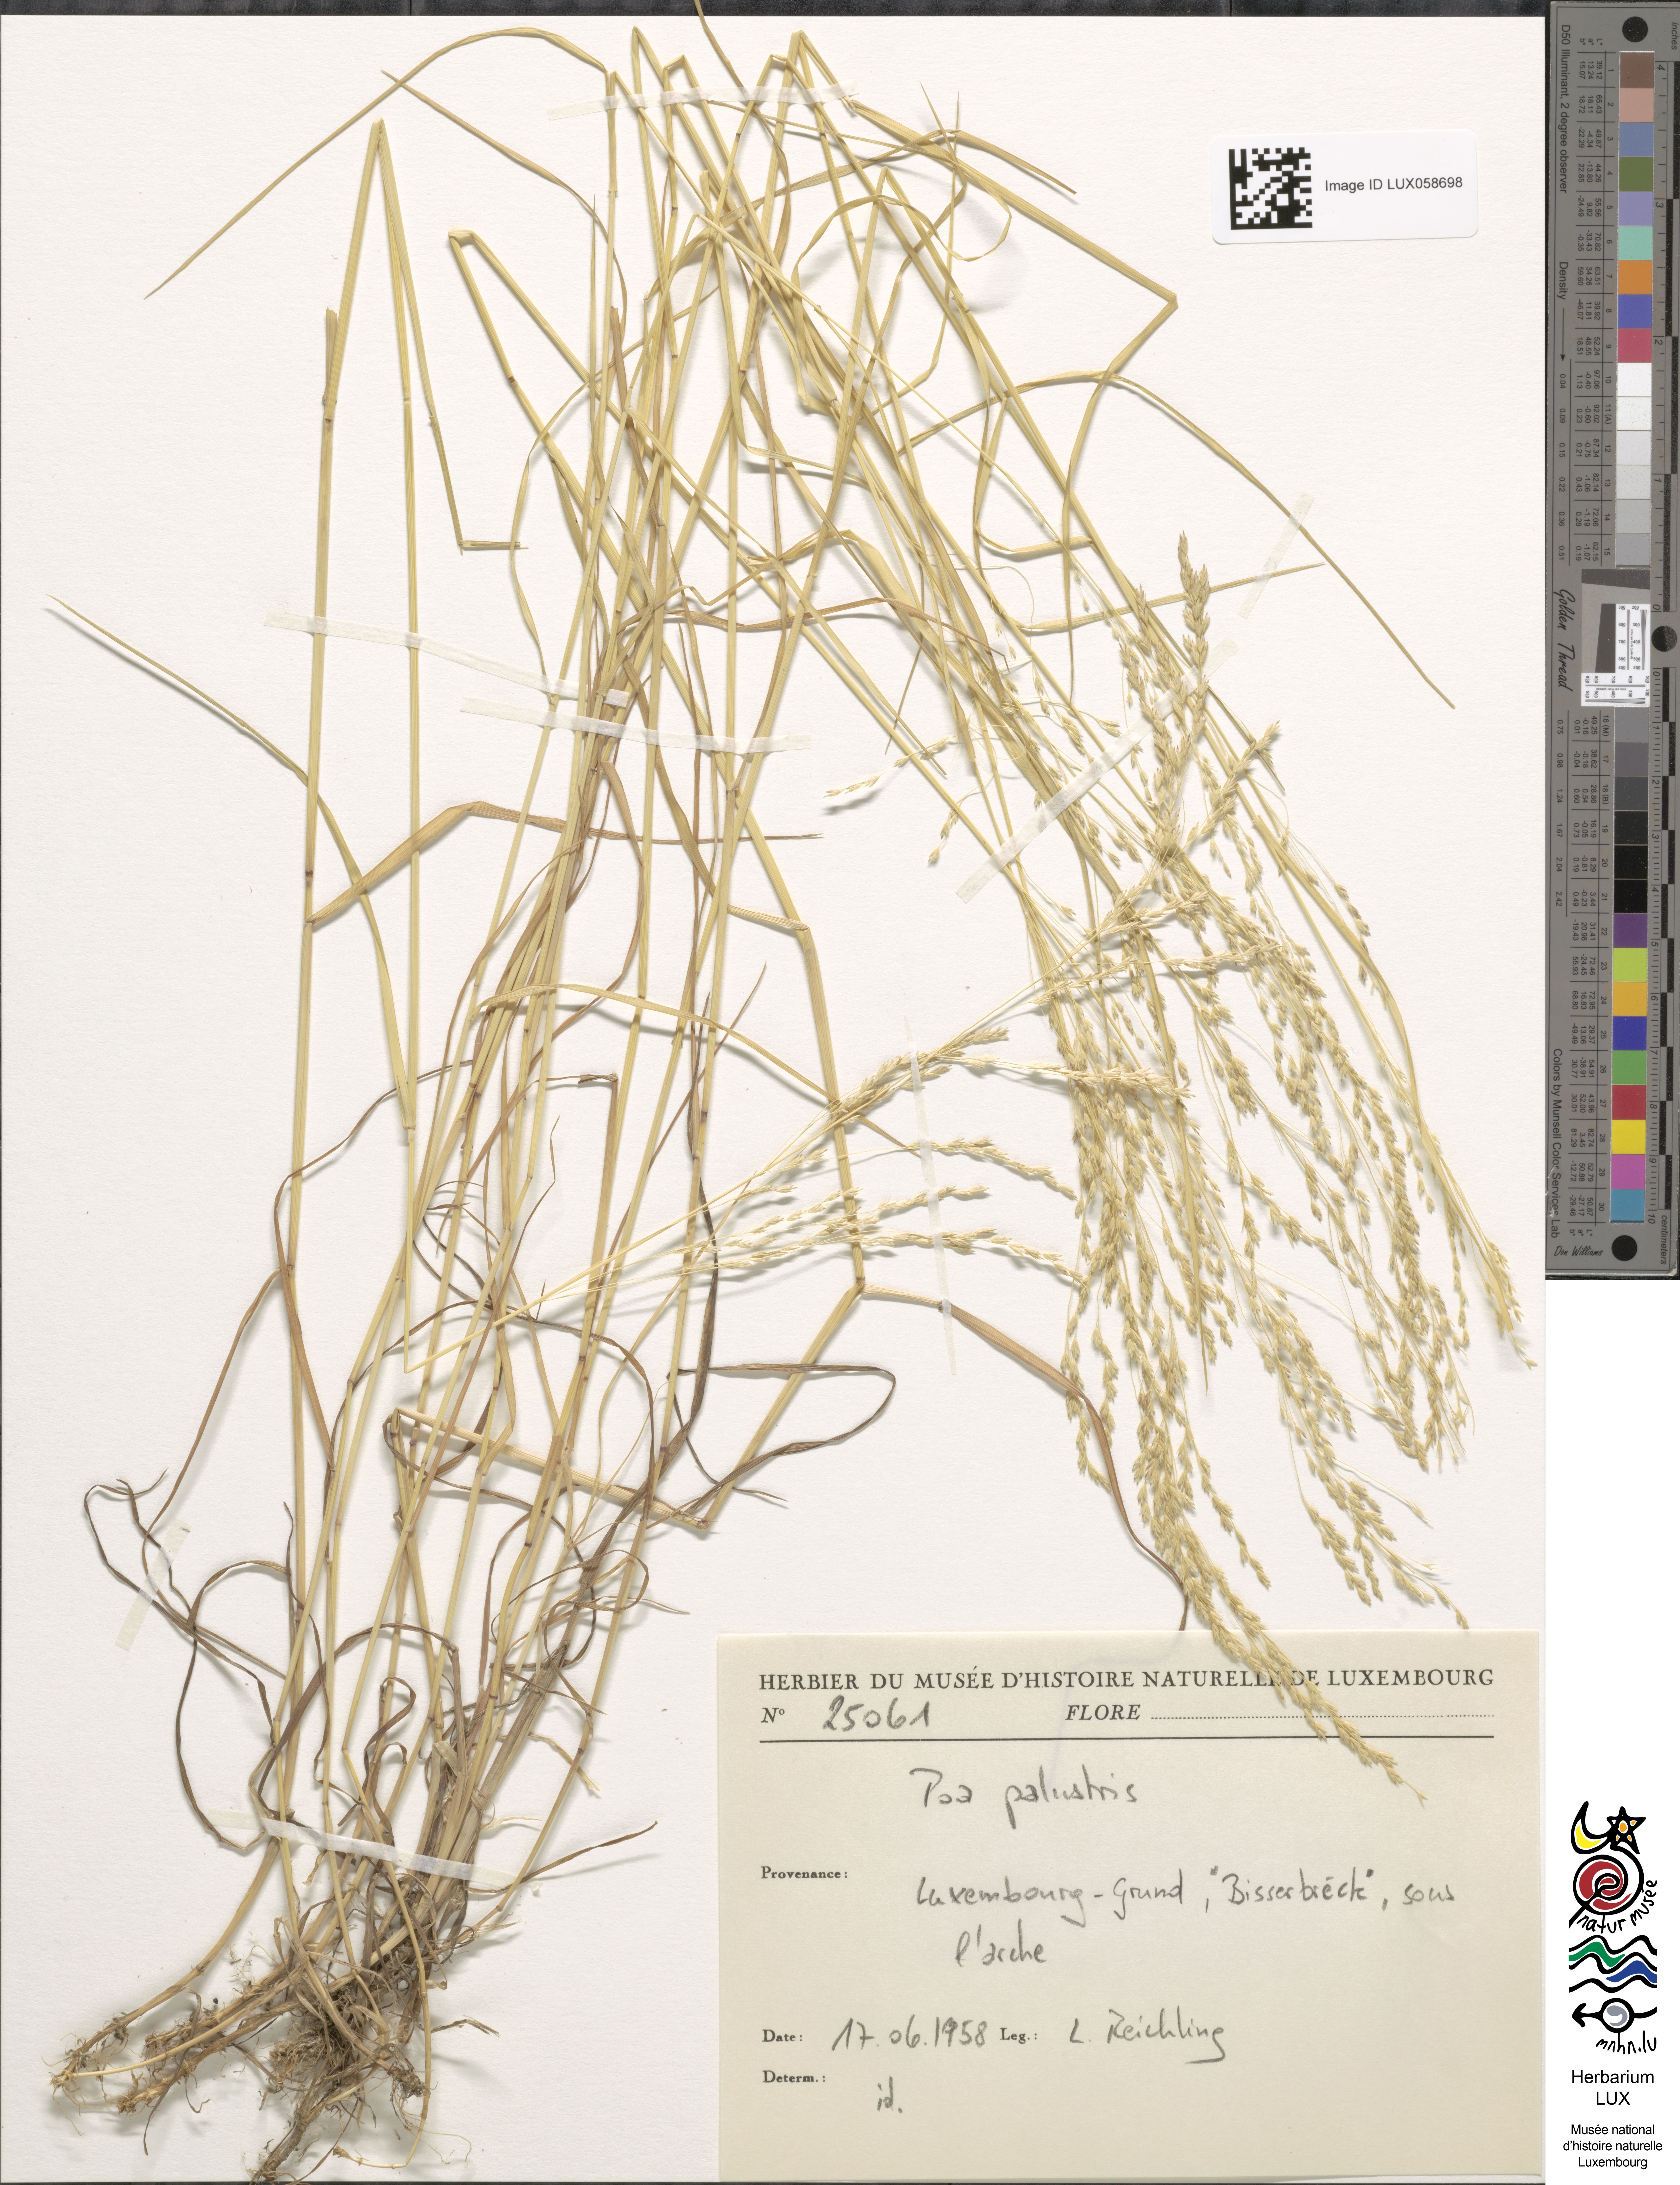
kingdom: Plantae
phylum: Tracheophyta
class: Liliopsida
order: Poales
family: Poaceae
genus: Poa
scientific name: Poa palustris
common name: Swamp meadow-grass
